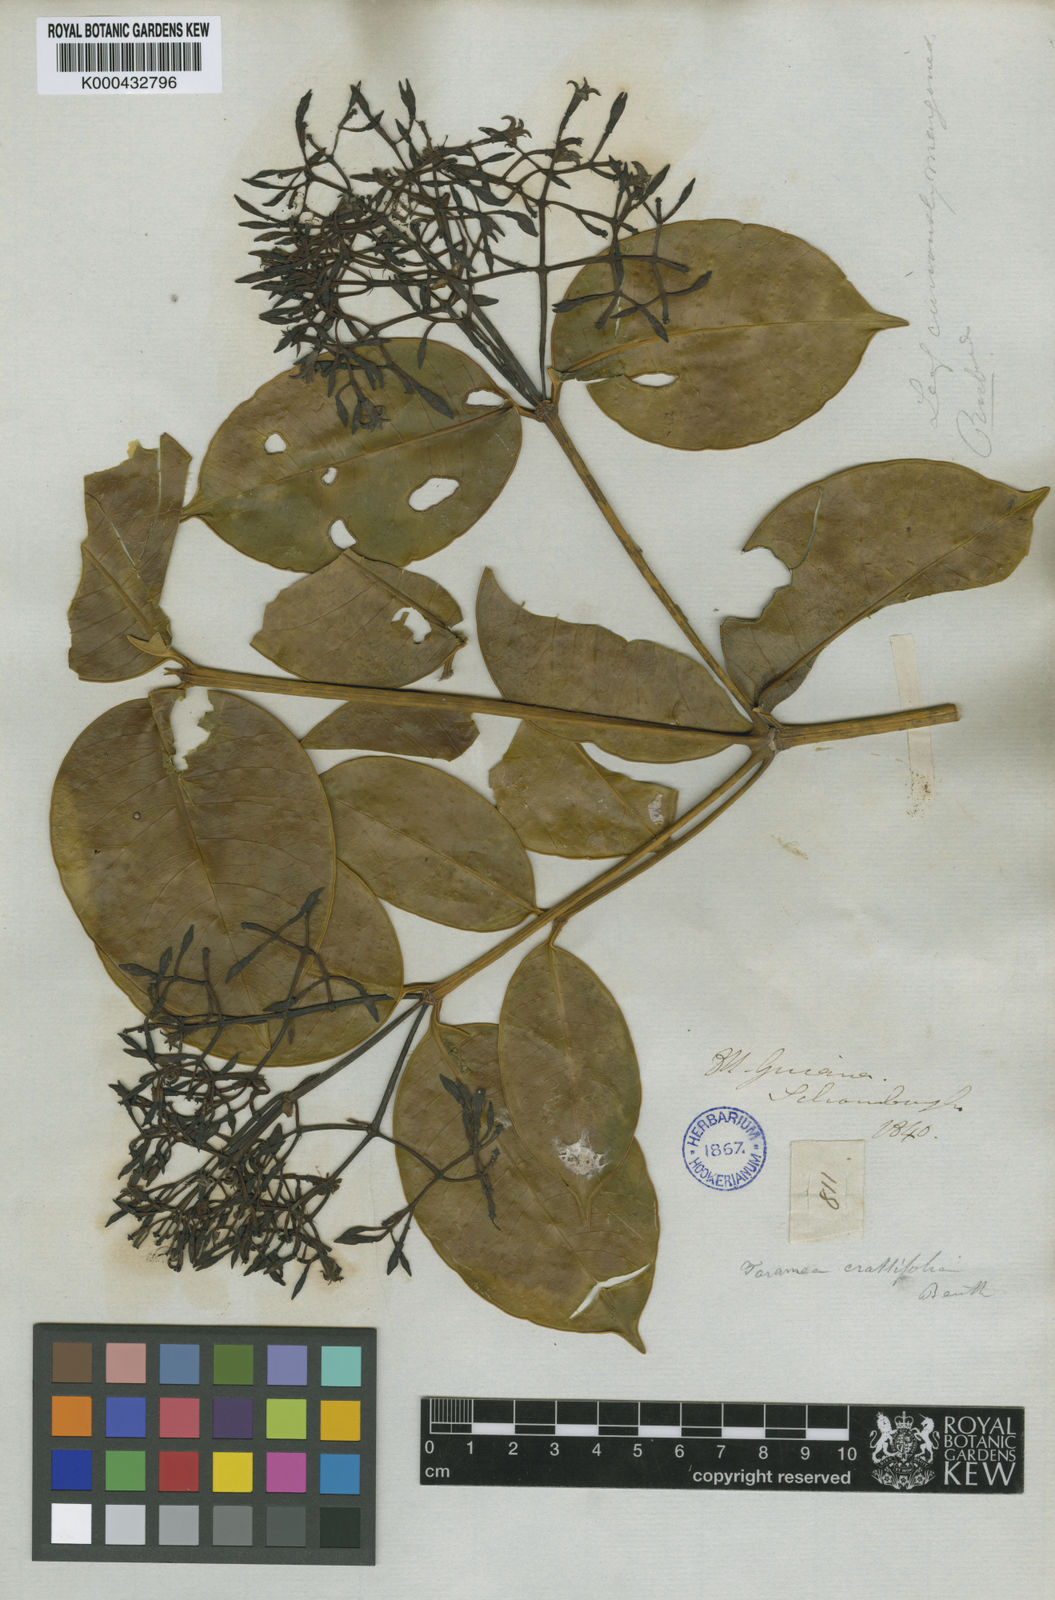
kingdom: Plantae
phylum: Tracheophyta
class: Magnoliopsida
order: Gentianales
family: Rubiaceae
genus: Faramea
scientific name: Faramea crassifolia
